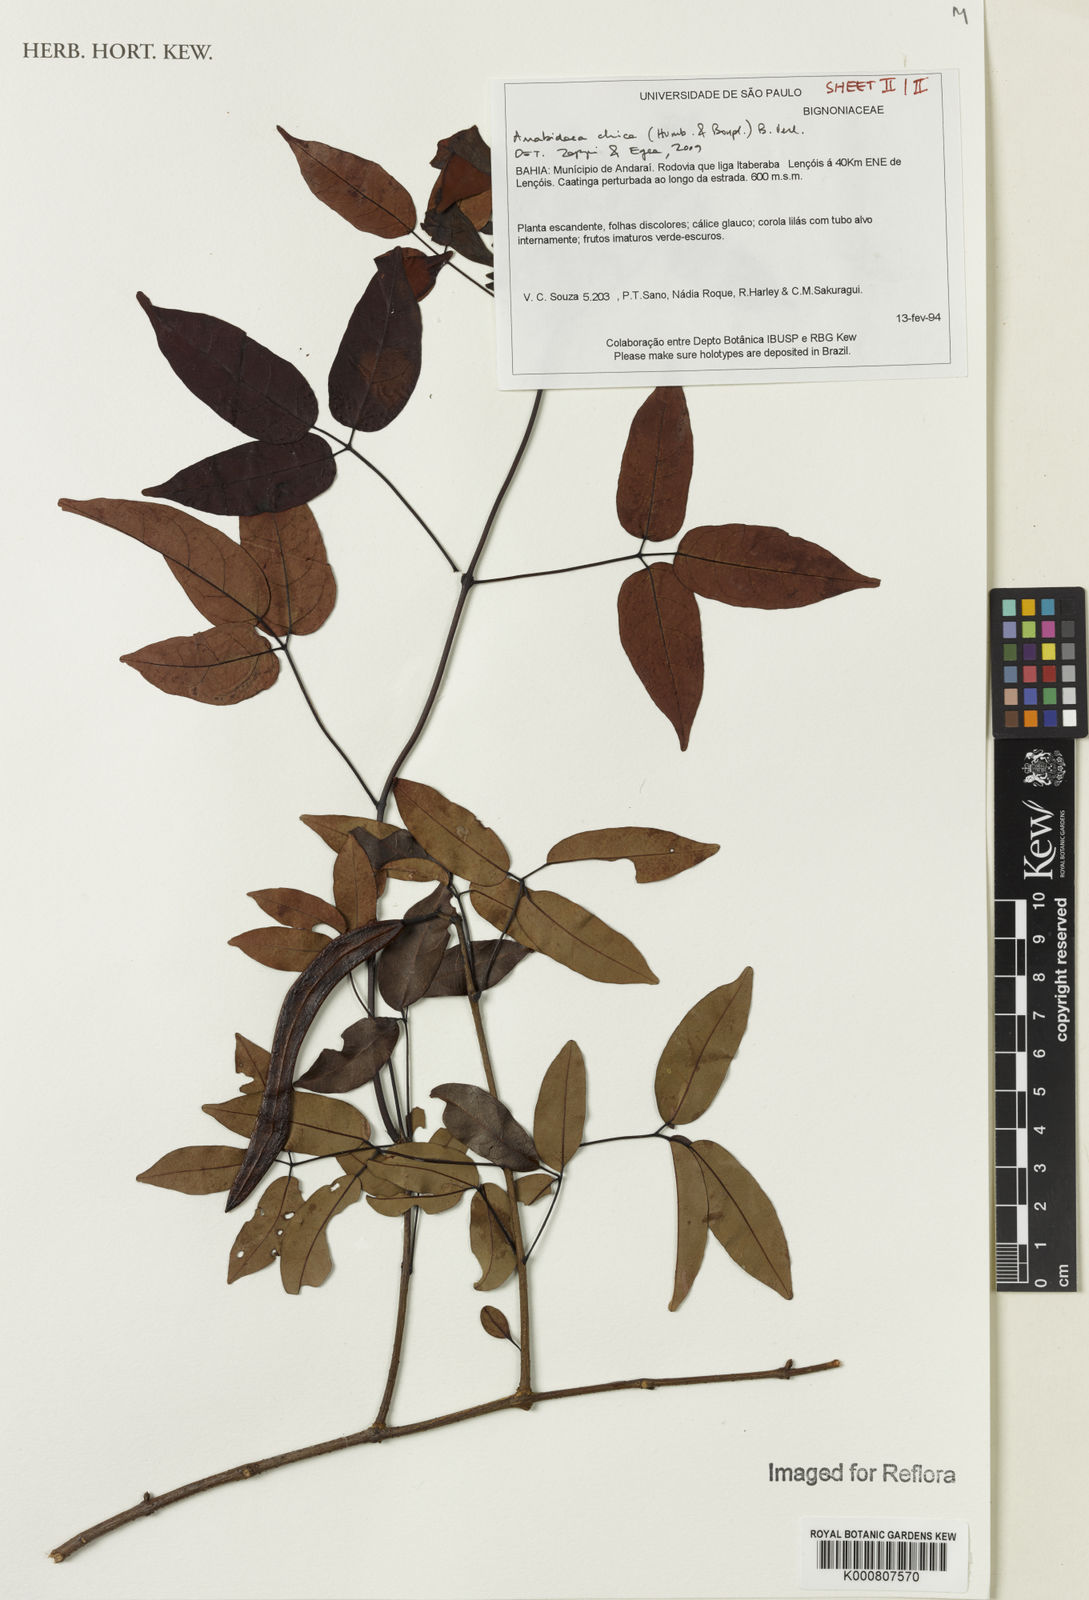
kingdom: Plantae
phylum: Tracheophyta
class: Magnoliopsida
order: Lamiales
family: Bignoniaceae
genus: Fridericia
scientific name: Fridericia chica
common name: Cricketvine
